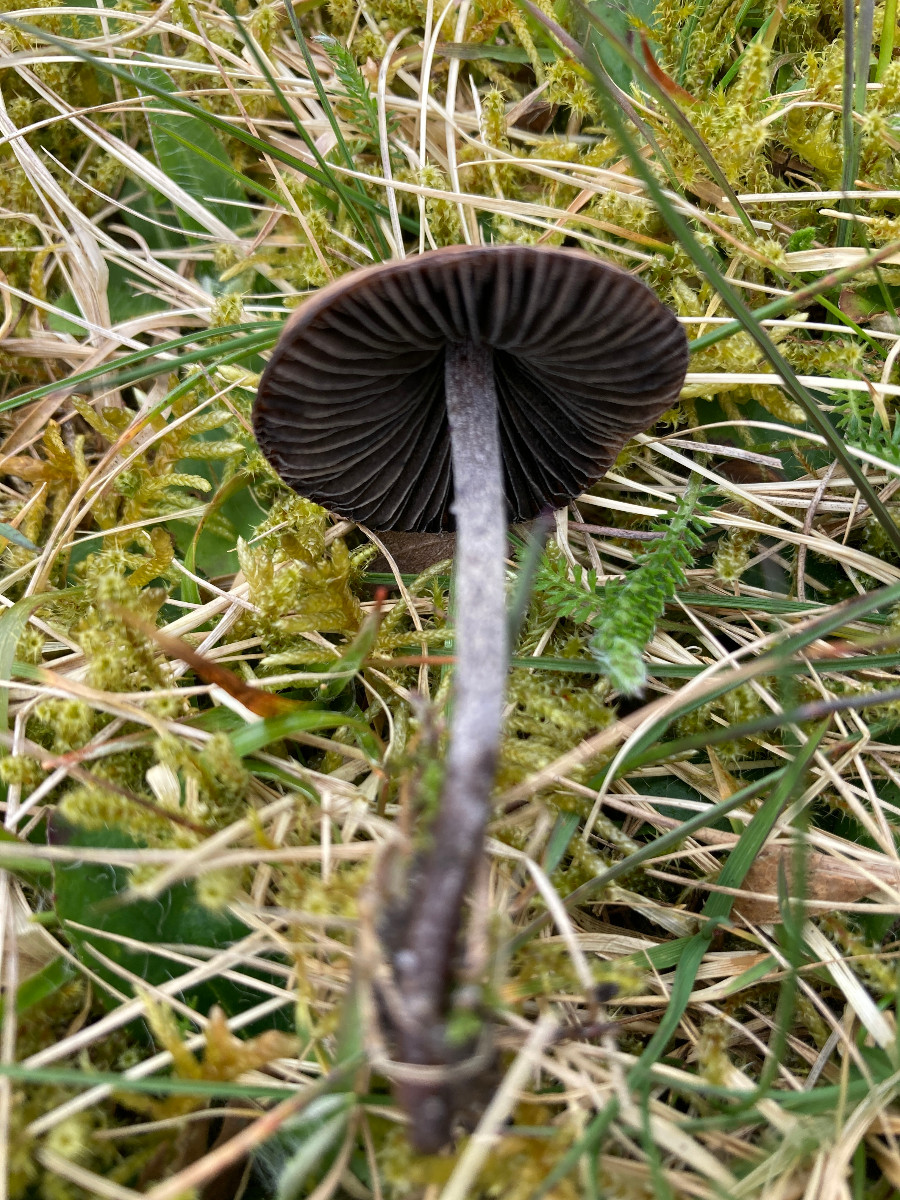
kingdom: Fungi
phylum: Basidiomycota
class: Agaricomycetes
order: Agaricales
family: Bolbitiaceae
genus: Panaeolus
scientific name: Panaeolus
